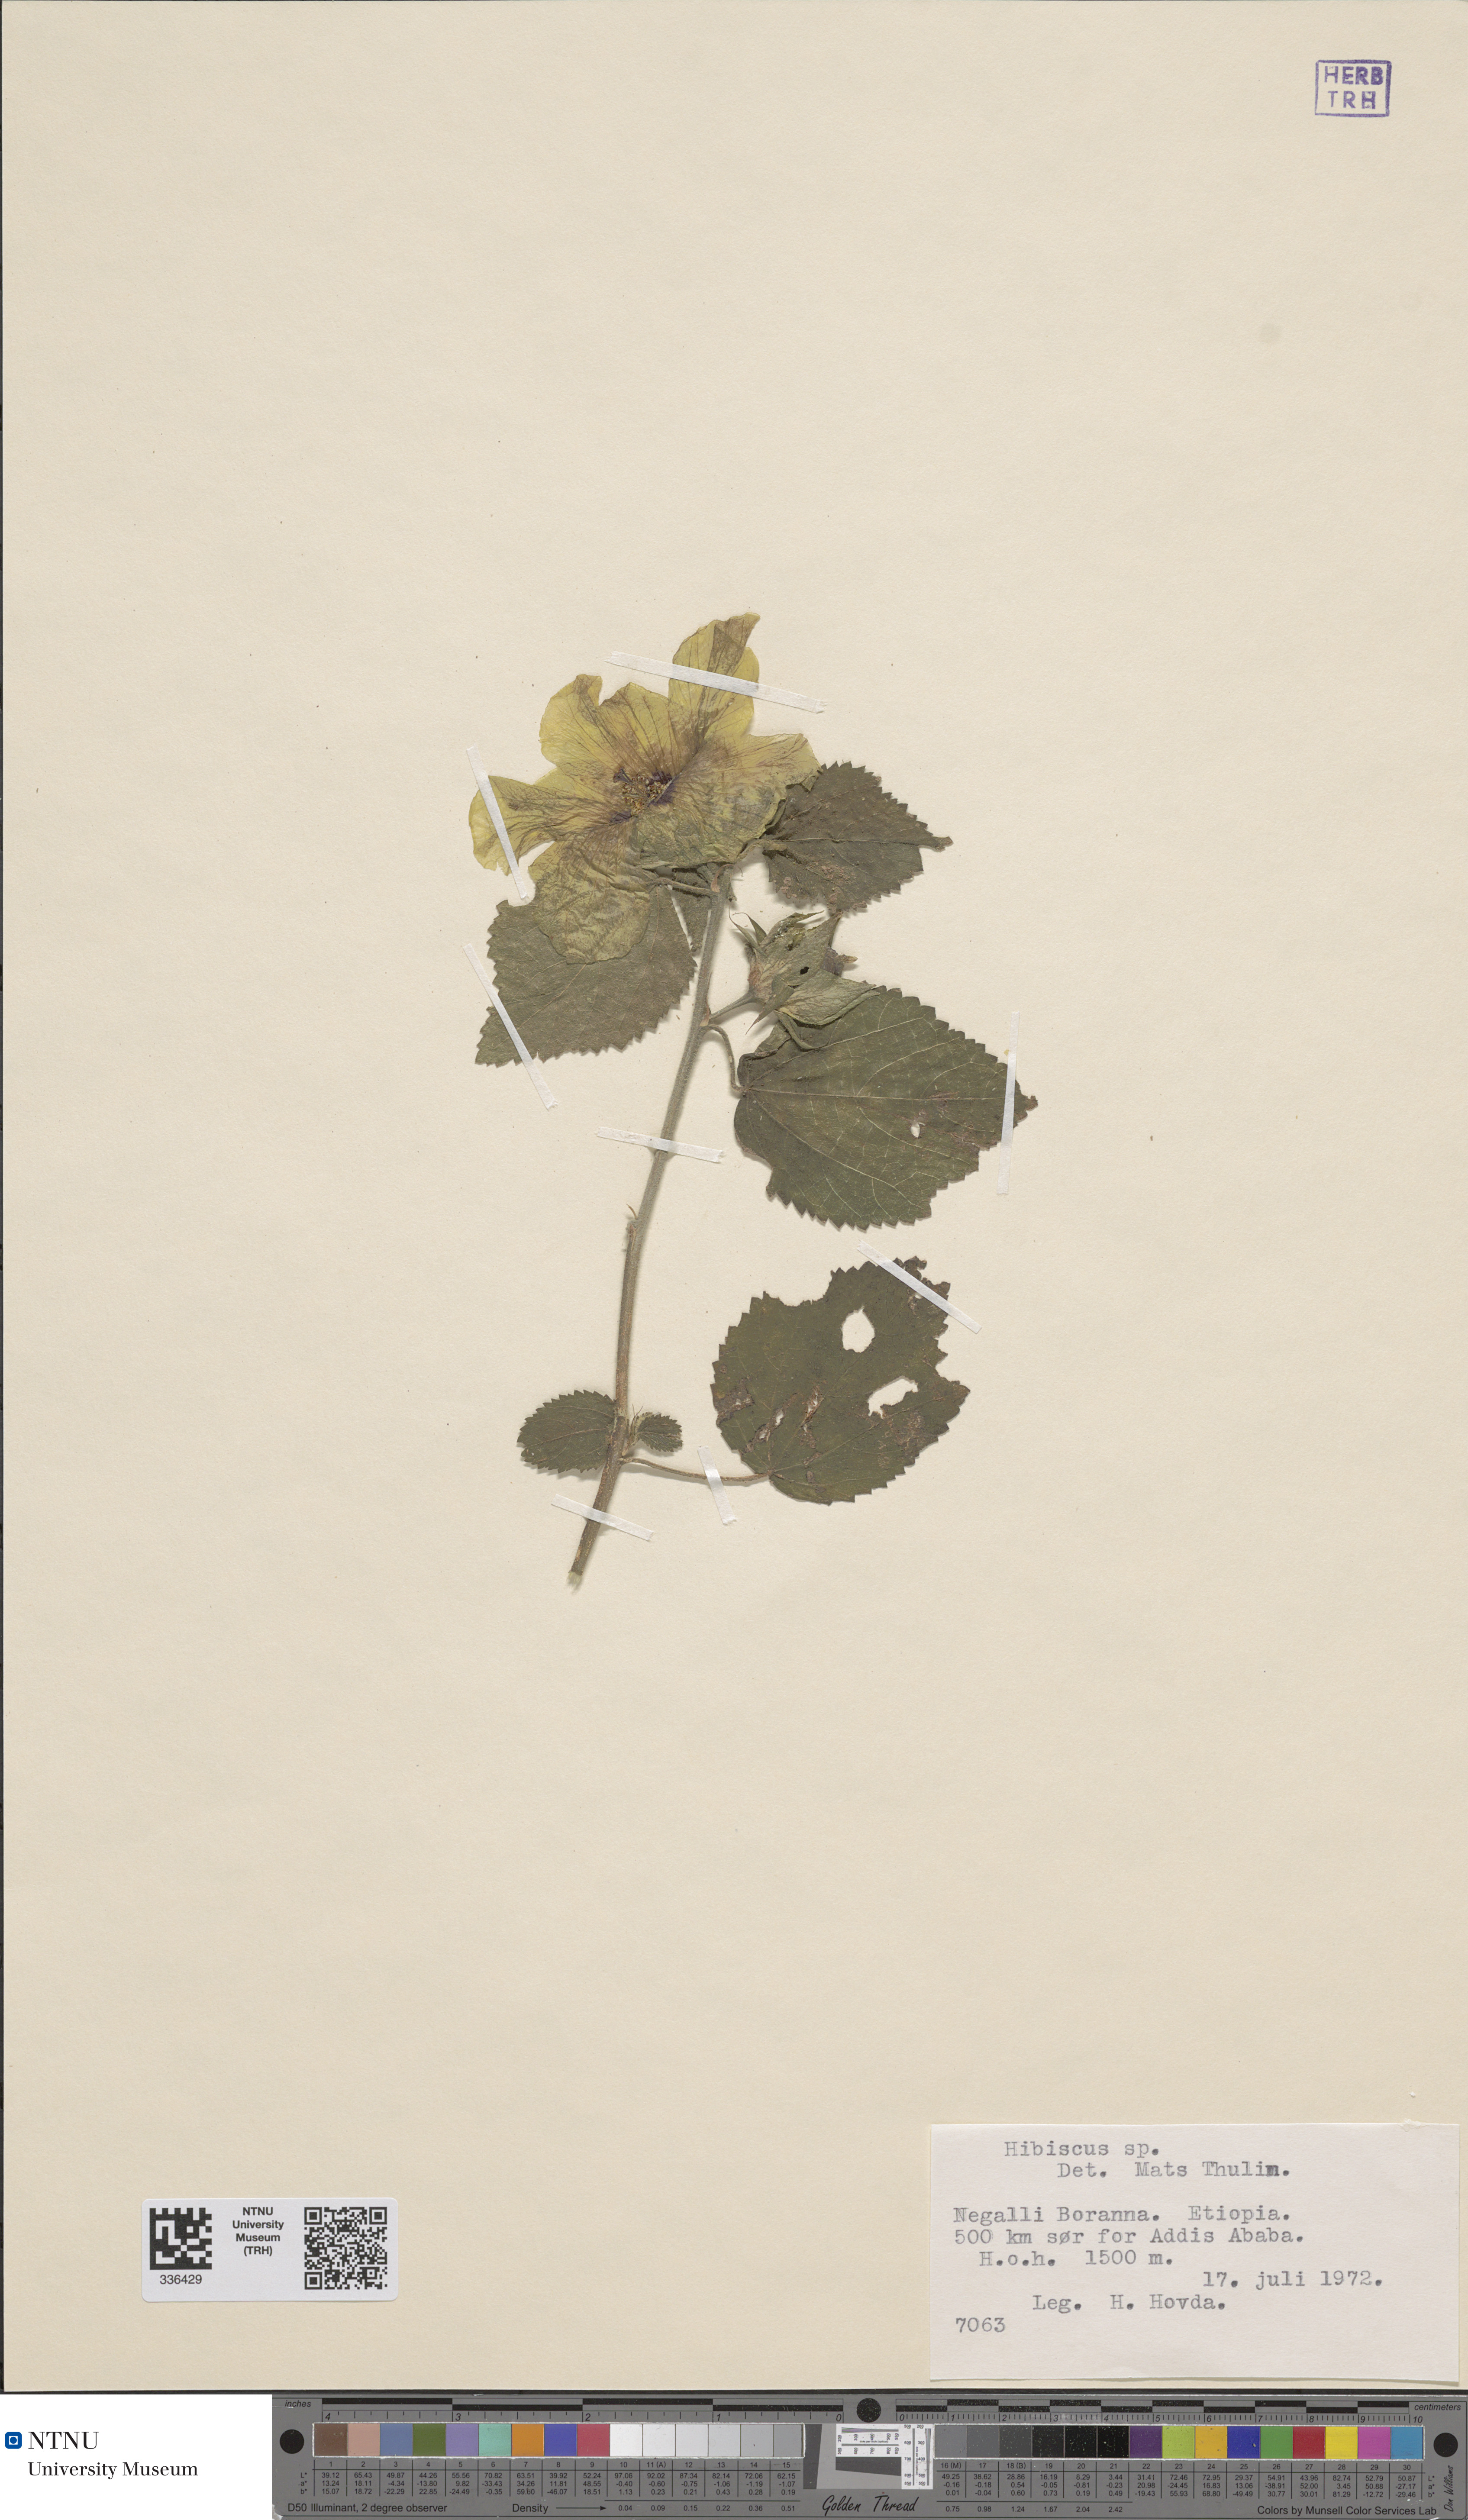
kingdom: Plantae
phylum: Tracheophyta
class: Magnoliopsida
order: Malvales
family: Malvaceae
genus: Hibiscus
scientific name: Hibiscus
